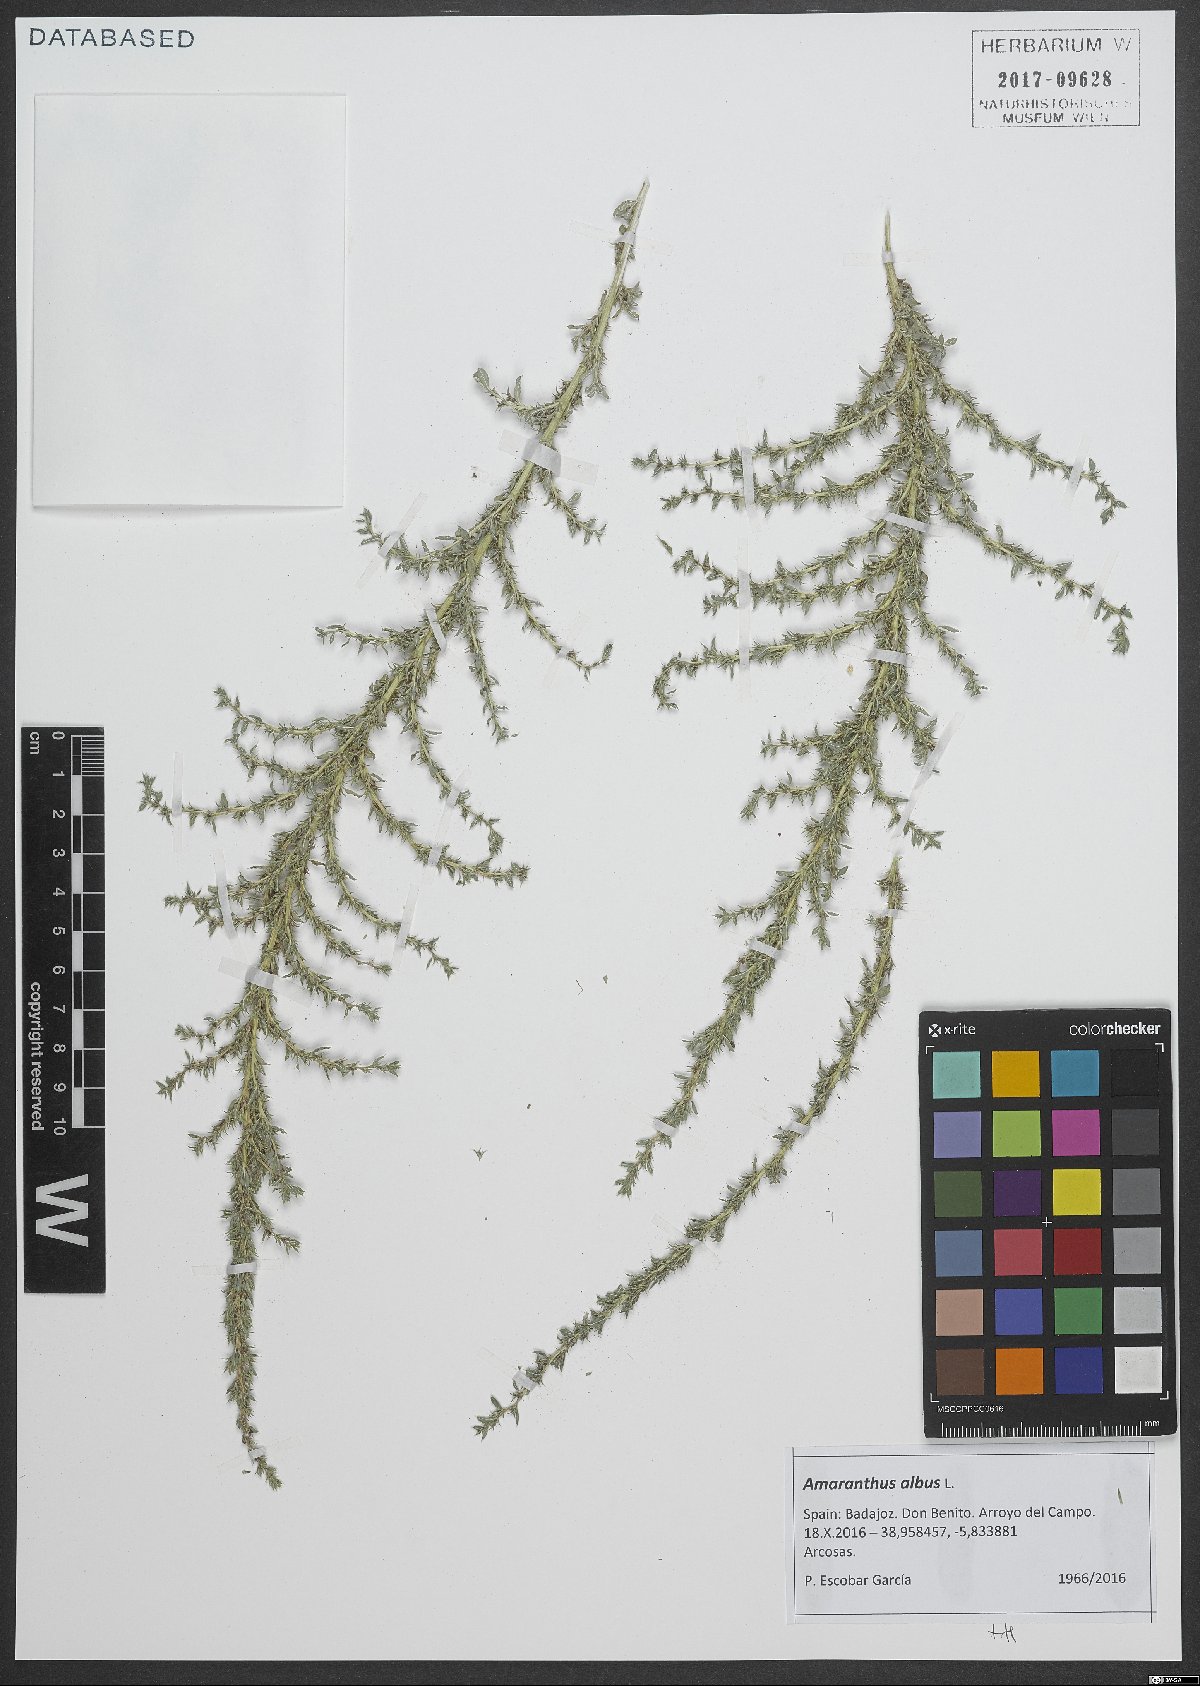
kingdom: Plantae
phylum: Tracheophyta
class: Magnoliopsida
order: Caryophyllales
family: Amaranthaceae
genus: Amaranthus
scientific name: Amaranthus albus
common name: White pigweed
